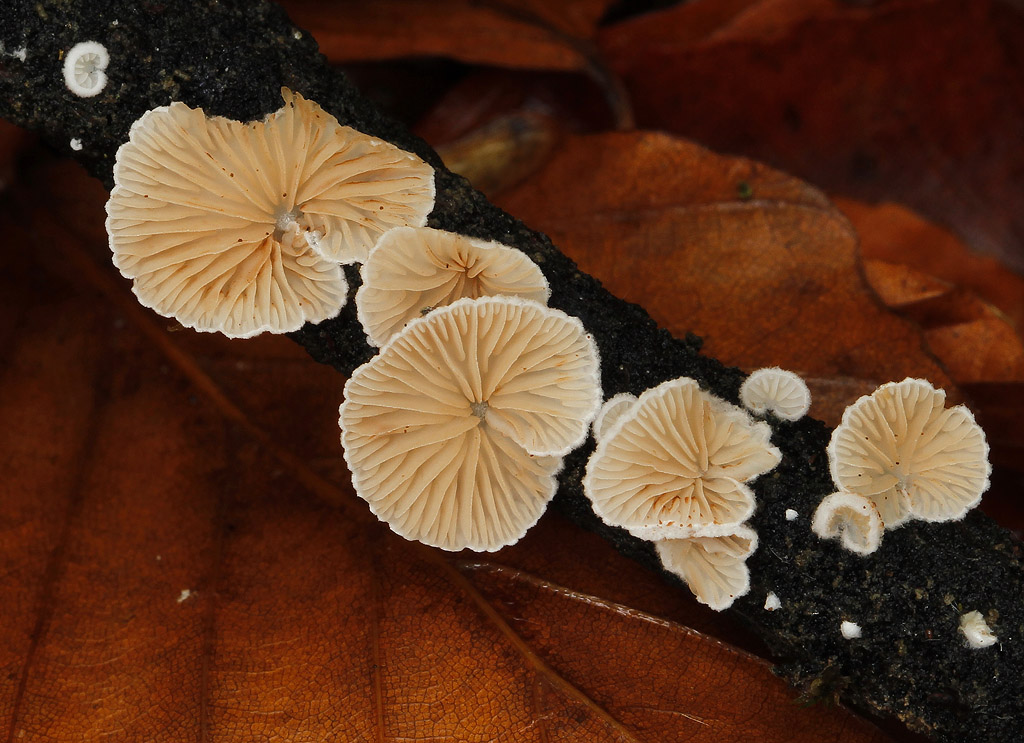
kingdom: Fungi
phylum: Basidiomycota
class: Agaricomycetes
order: Agaricales
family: Crepidotaceae
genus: Crepidotus
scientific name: Crepidotus cesatii
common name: almindelig muslingesvamp
